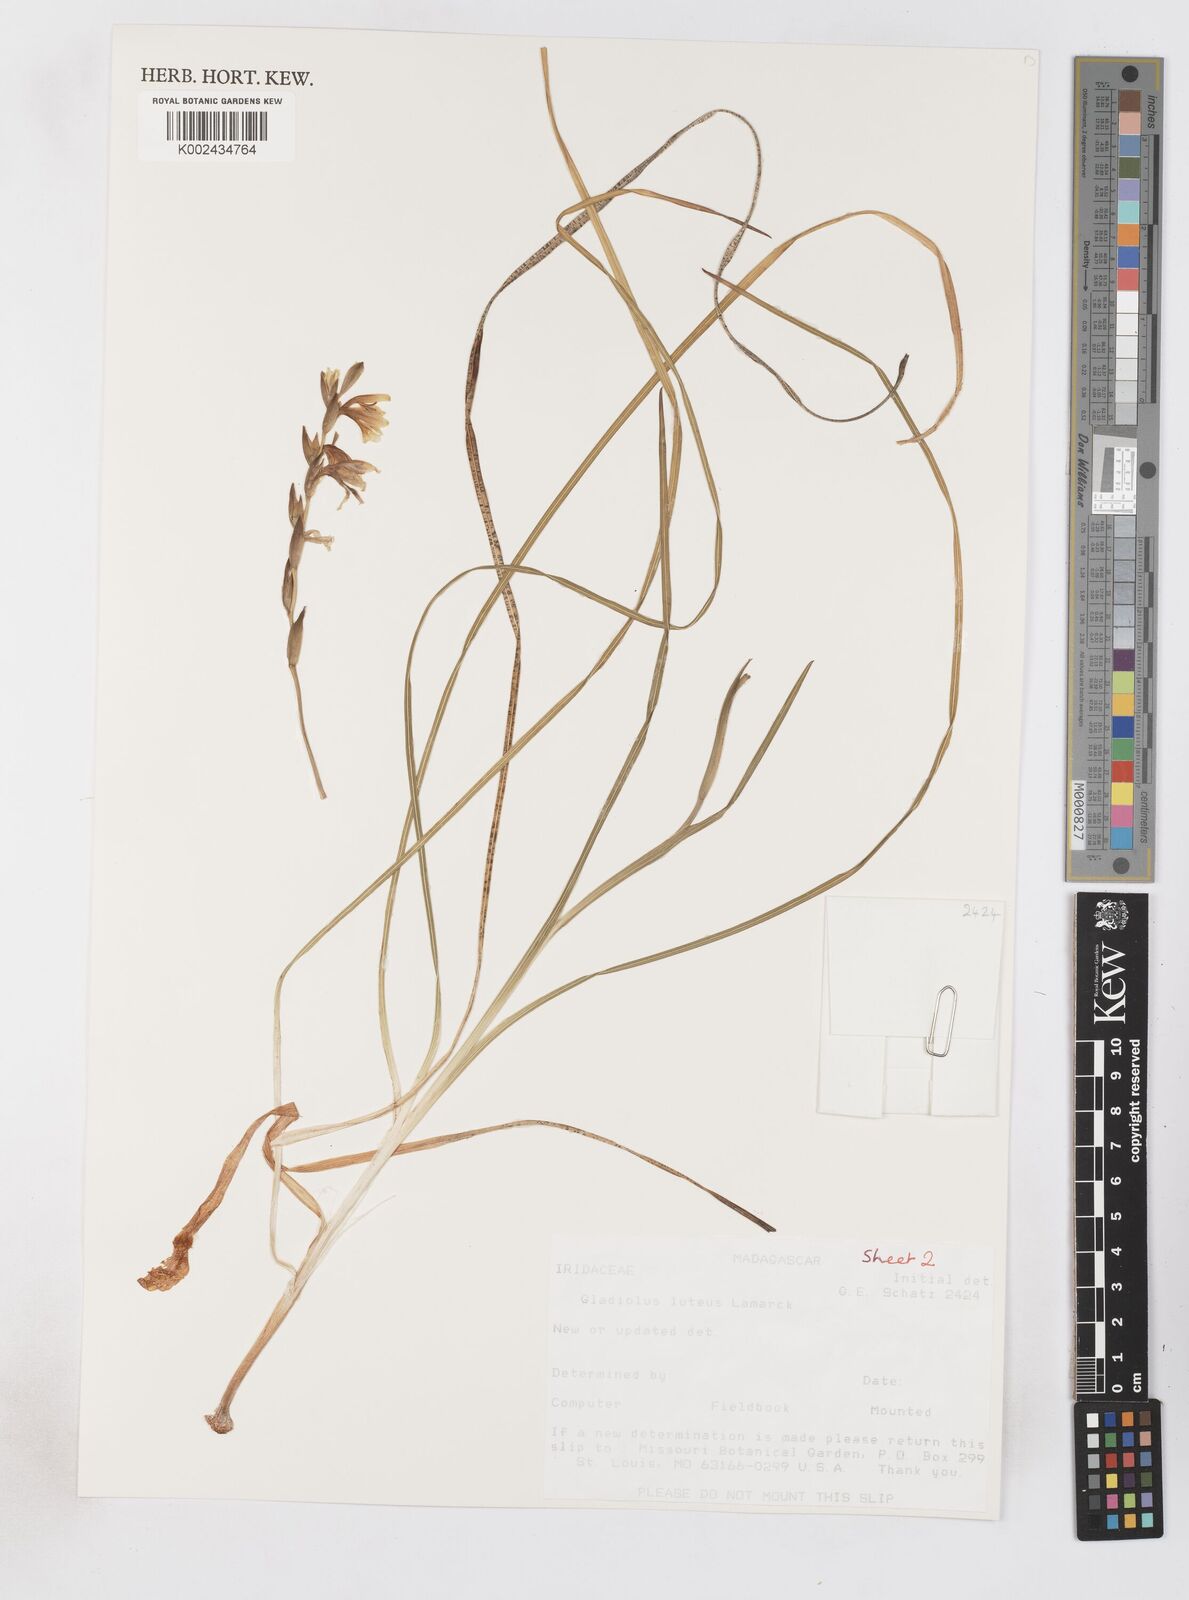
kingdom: Plantae
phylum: Tracheophyta
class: Liliopsida
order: Asparagales
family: Iridaceae
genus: Gladiolus
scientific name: Gladiolus luteus
